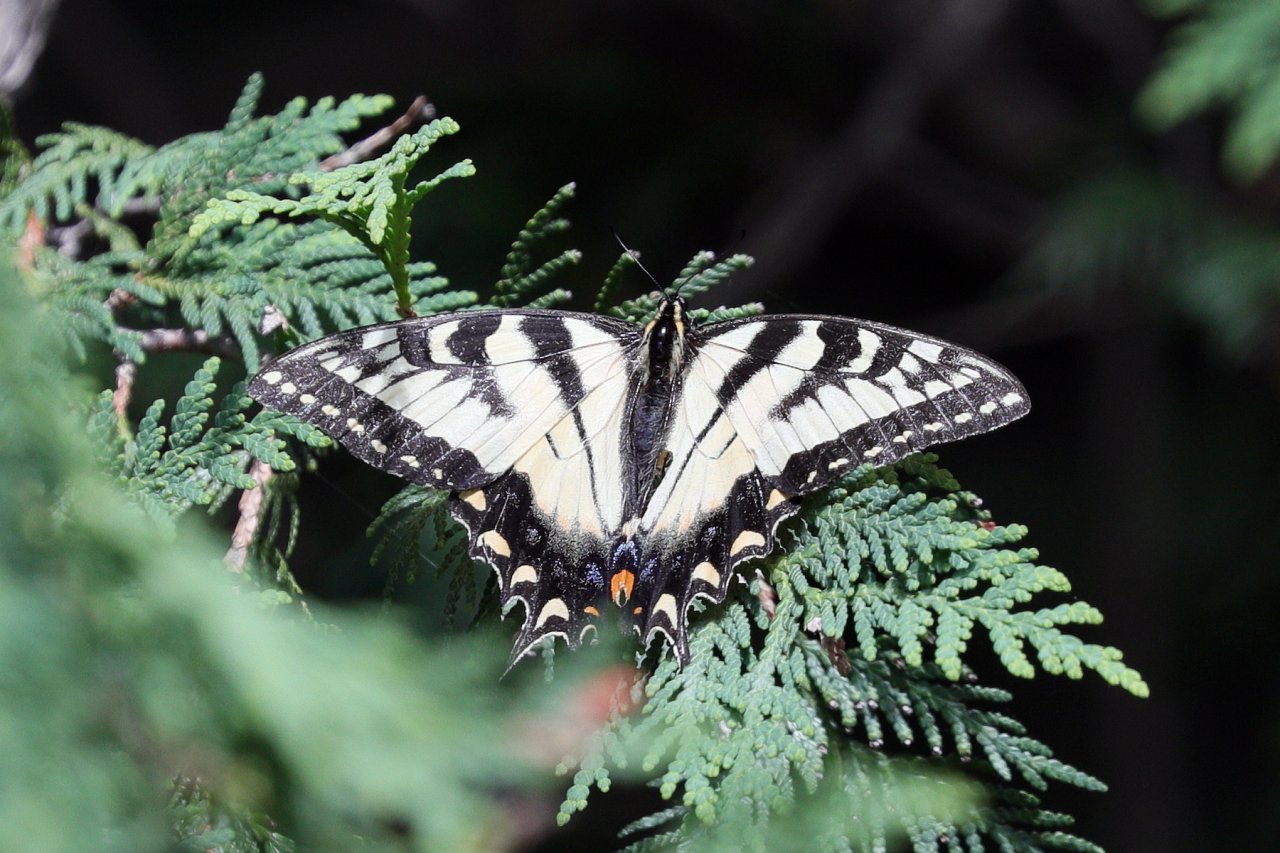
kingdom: Animalia
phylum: Arthropoda
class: Insecta
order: Lepidoptera
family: Papilionidae
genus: Pterourus
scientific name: Pterourus glaucus
